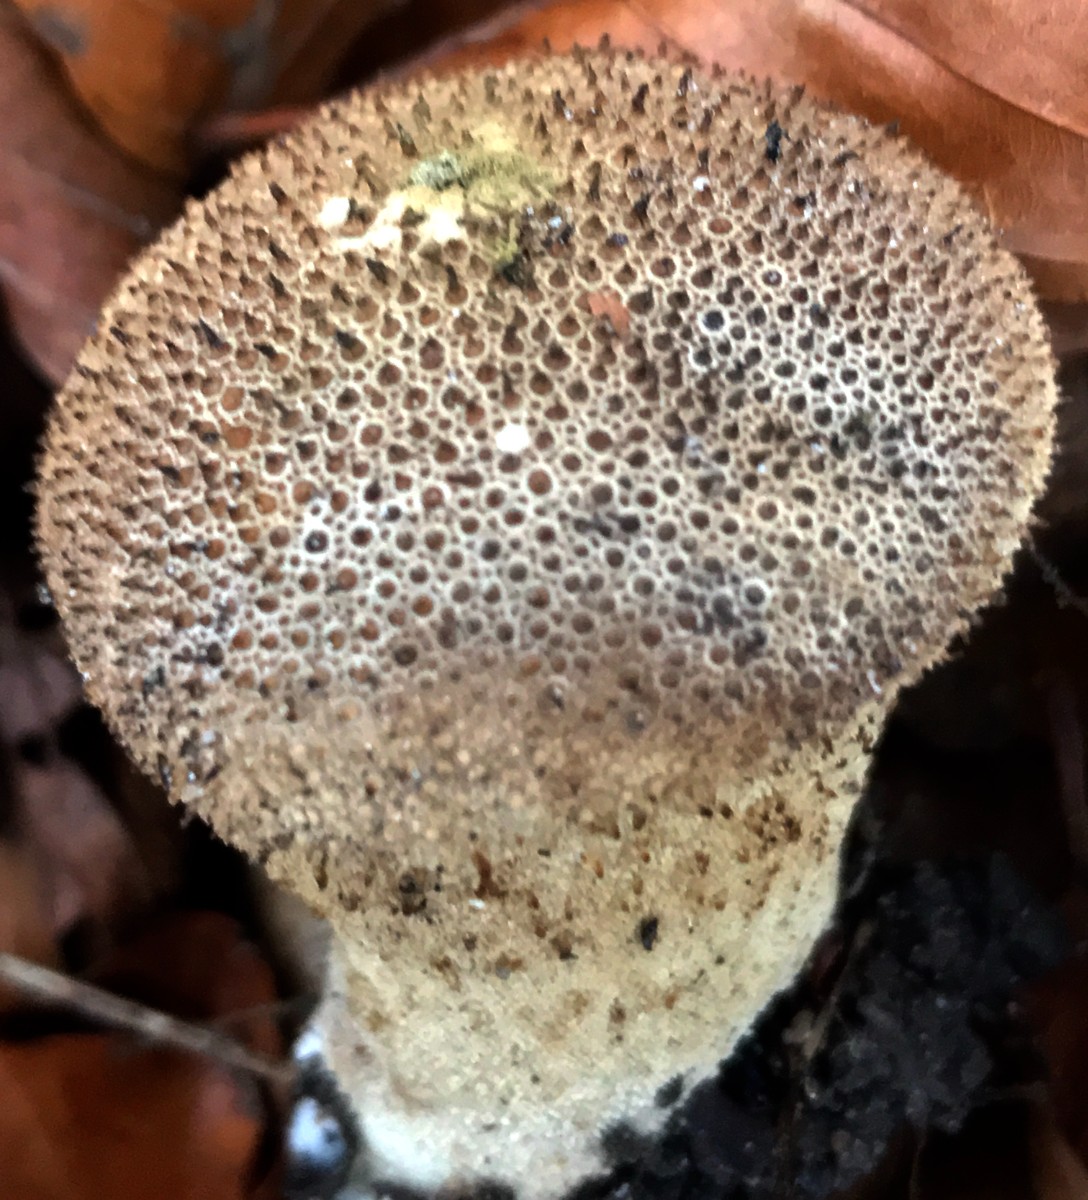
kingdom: Fungi
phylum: Basidiomycota
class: Agaricomycetes
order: Agaricales
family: Lycoperdaceae
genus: Lycoperdon
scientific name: Lycoperdon perlatum
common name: krystal-støvbold
